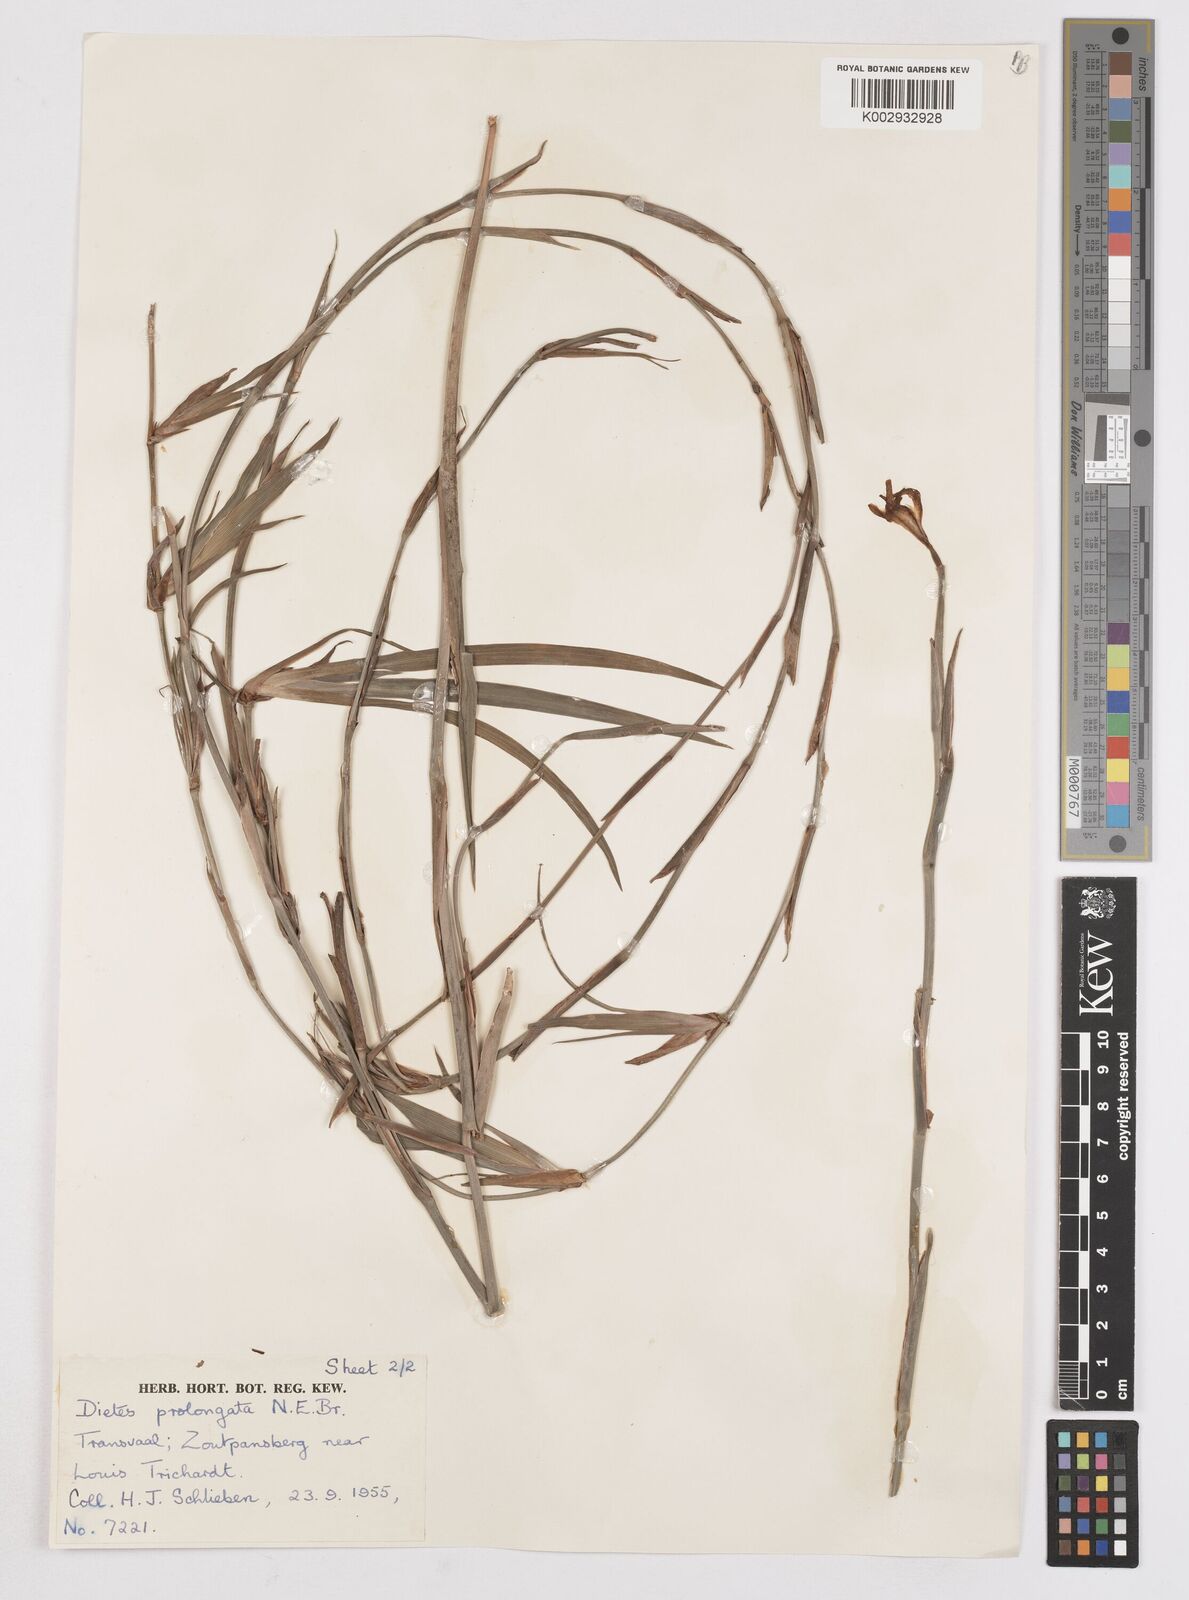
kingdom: Plantae
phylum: Tracheophyta
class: Liliopsida
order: Asparagales
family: Iridaceae
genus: Dietes
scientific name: Dietes iridioides
